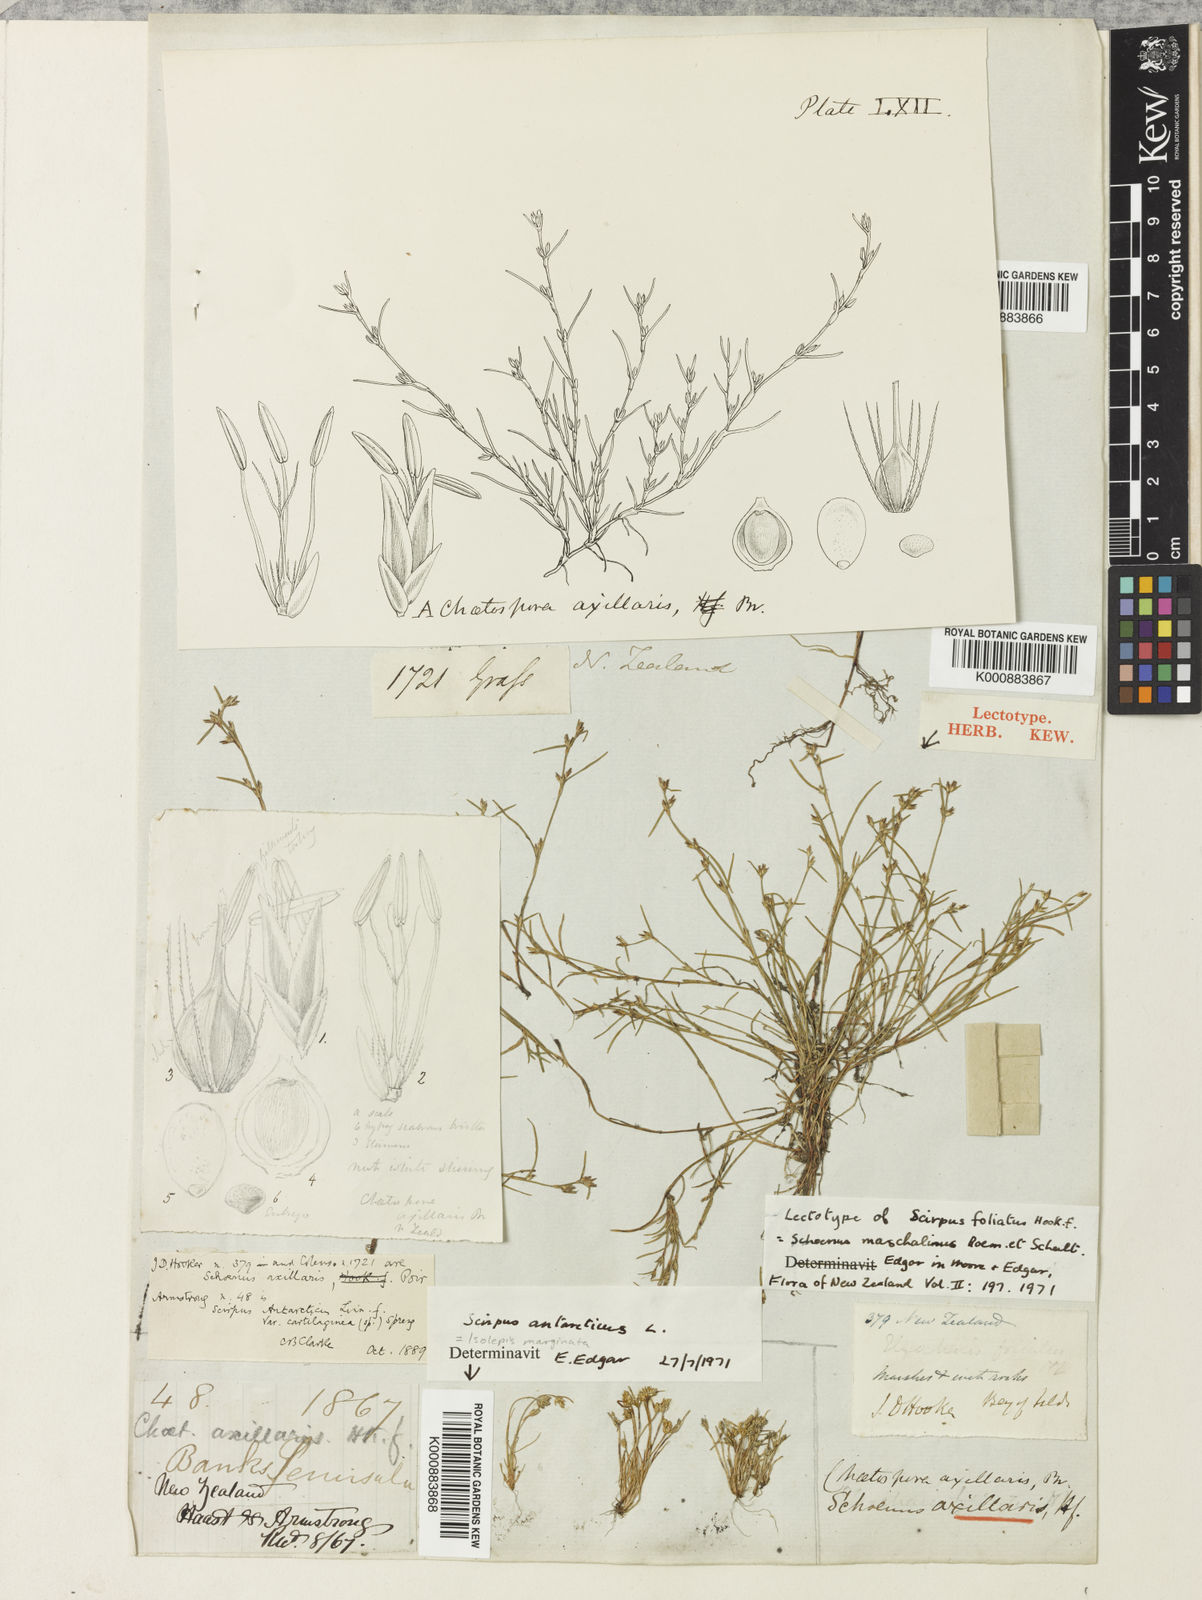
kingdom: Plantae
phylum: Tracheophyta
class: Liliopsida
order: Poales
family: Cyperaceae
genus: Schoenus
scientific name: Schoenus maschalinus
